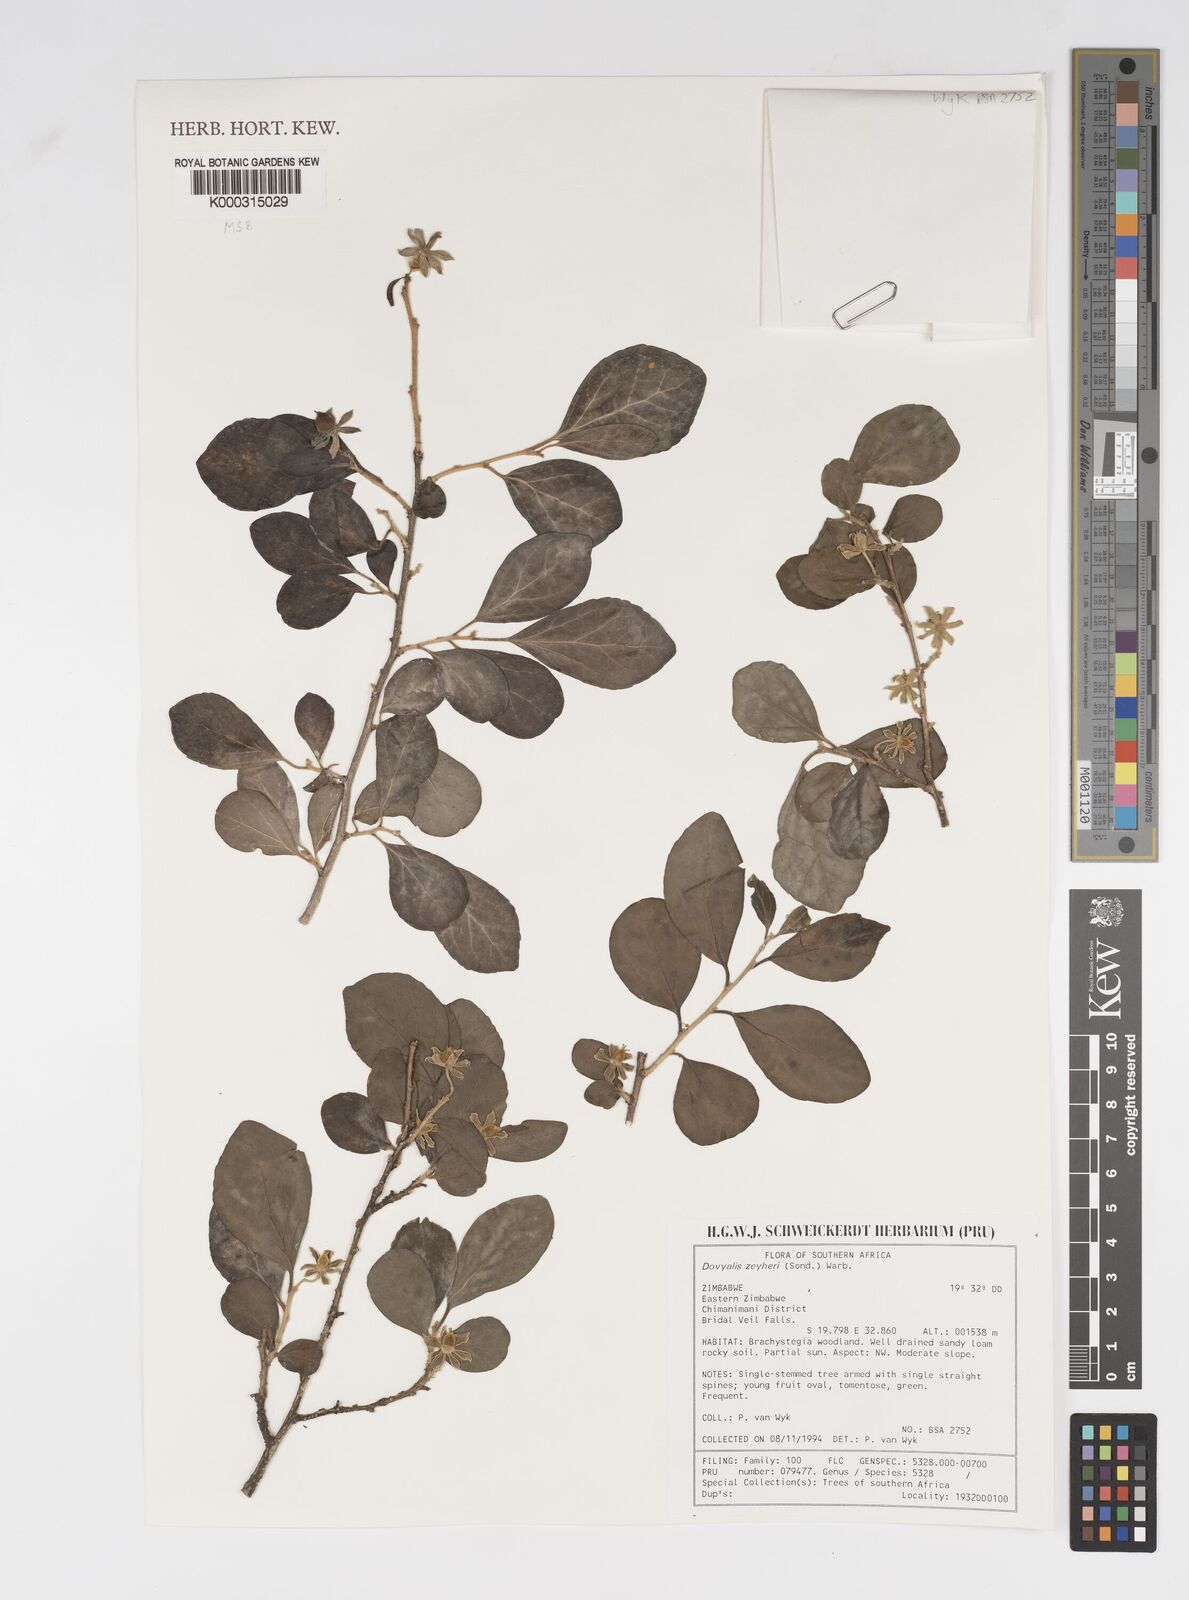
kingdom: Plantae
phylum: Tracheophyta
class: Magnoliopsida
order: Malpighiales
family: Salicaceae
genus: Dovyalis
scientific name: Dovyalis zeyheri
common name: Apricot sourberry
